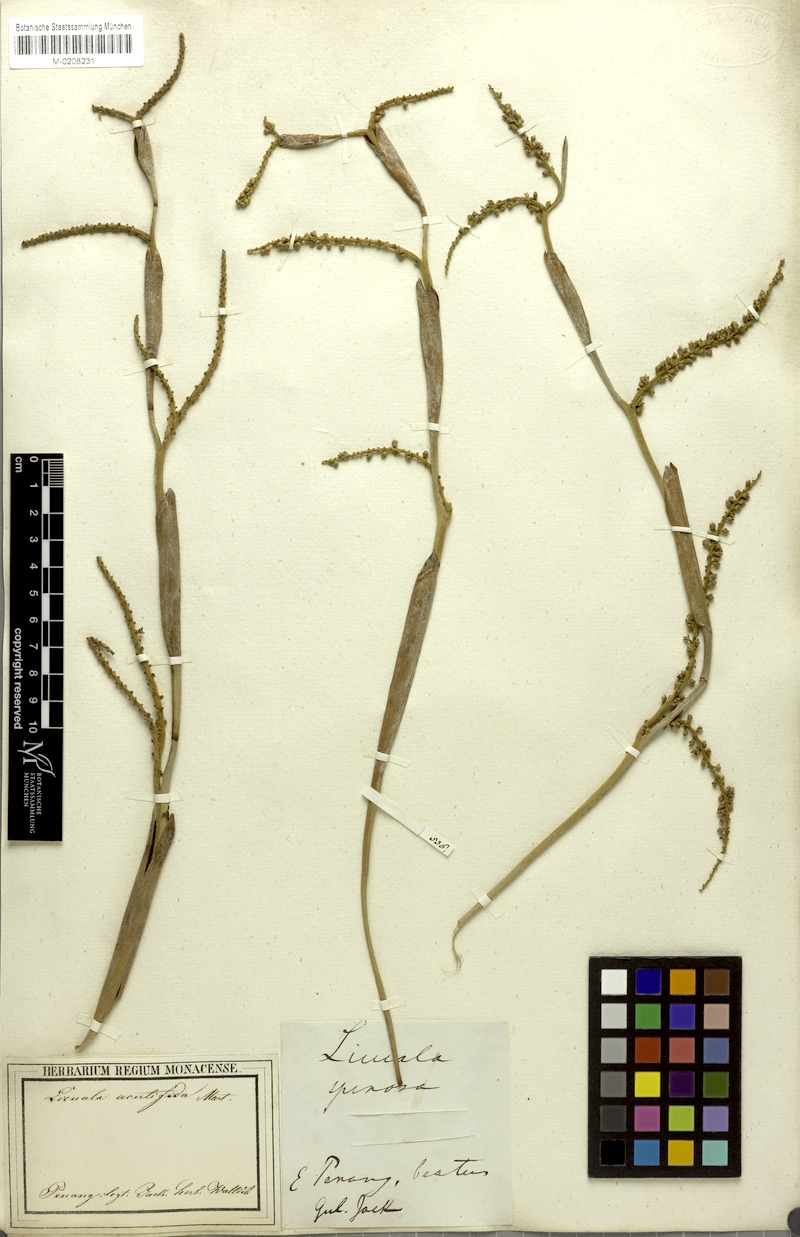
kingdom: Plantae
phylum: Tracheophyta
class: Liliopsida
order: Arecales
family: Arecaceae
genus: Licuala
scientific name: Licuala acutifida
